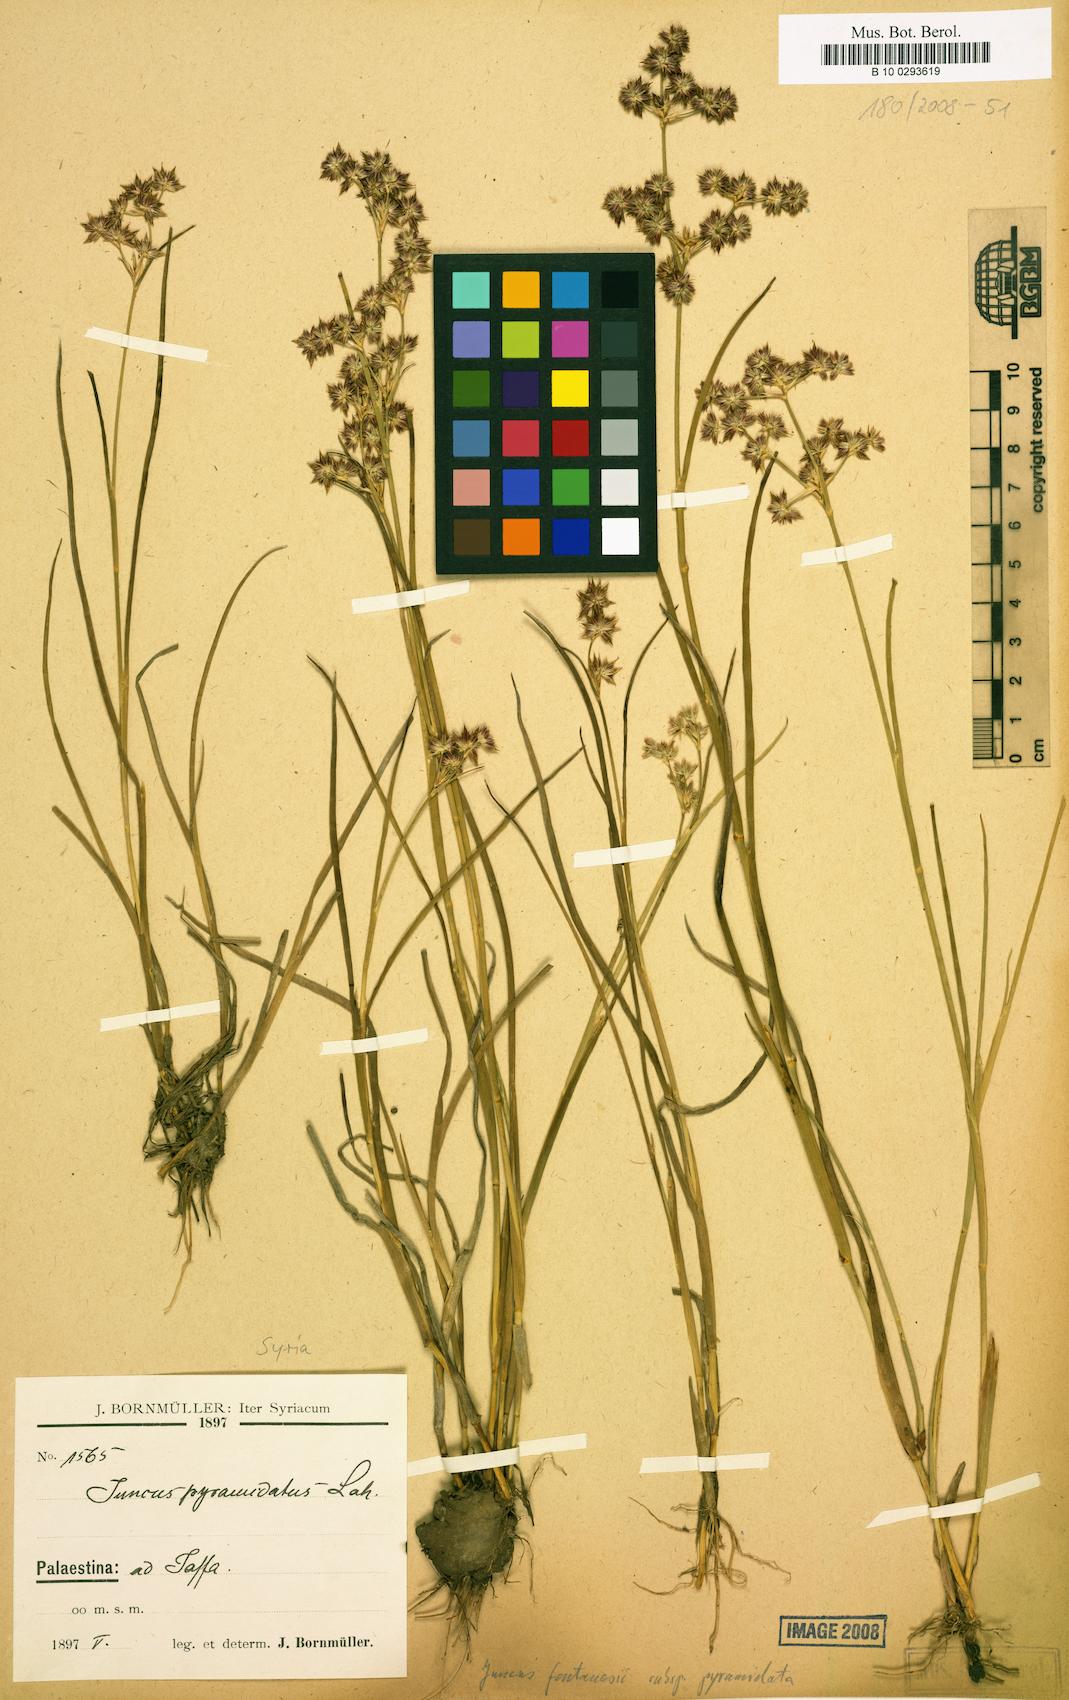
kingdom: Plantae
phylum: Tracheophyta
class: Liliopsida
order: Poales
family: Juncaceae
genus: Juncus
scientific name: Juncus fontanesii
